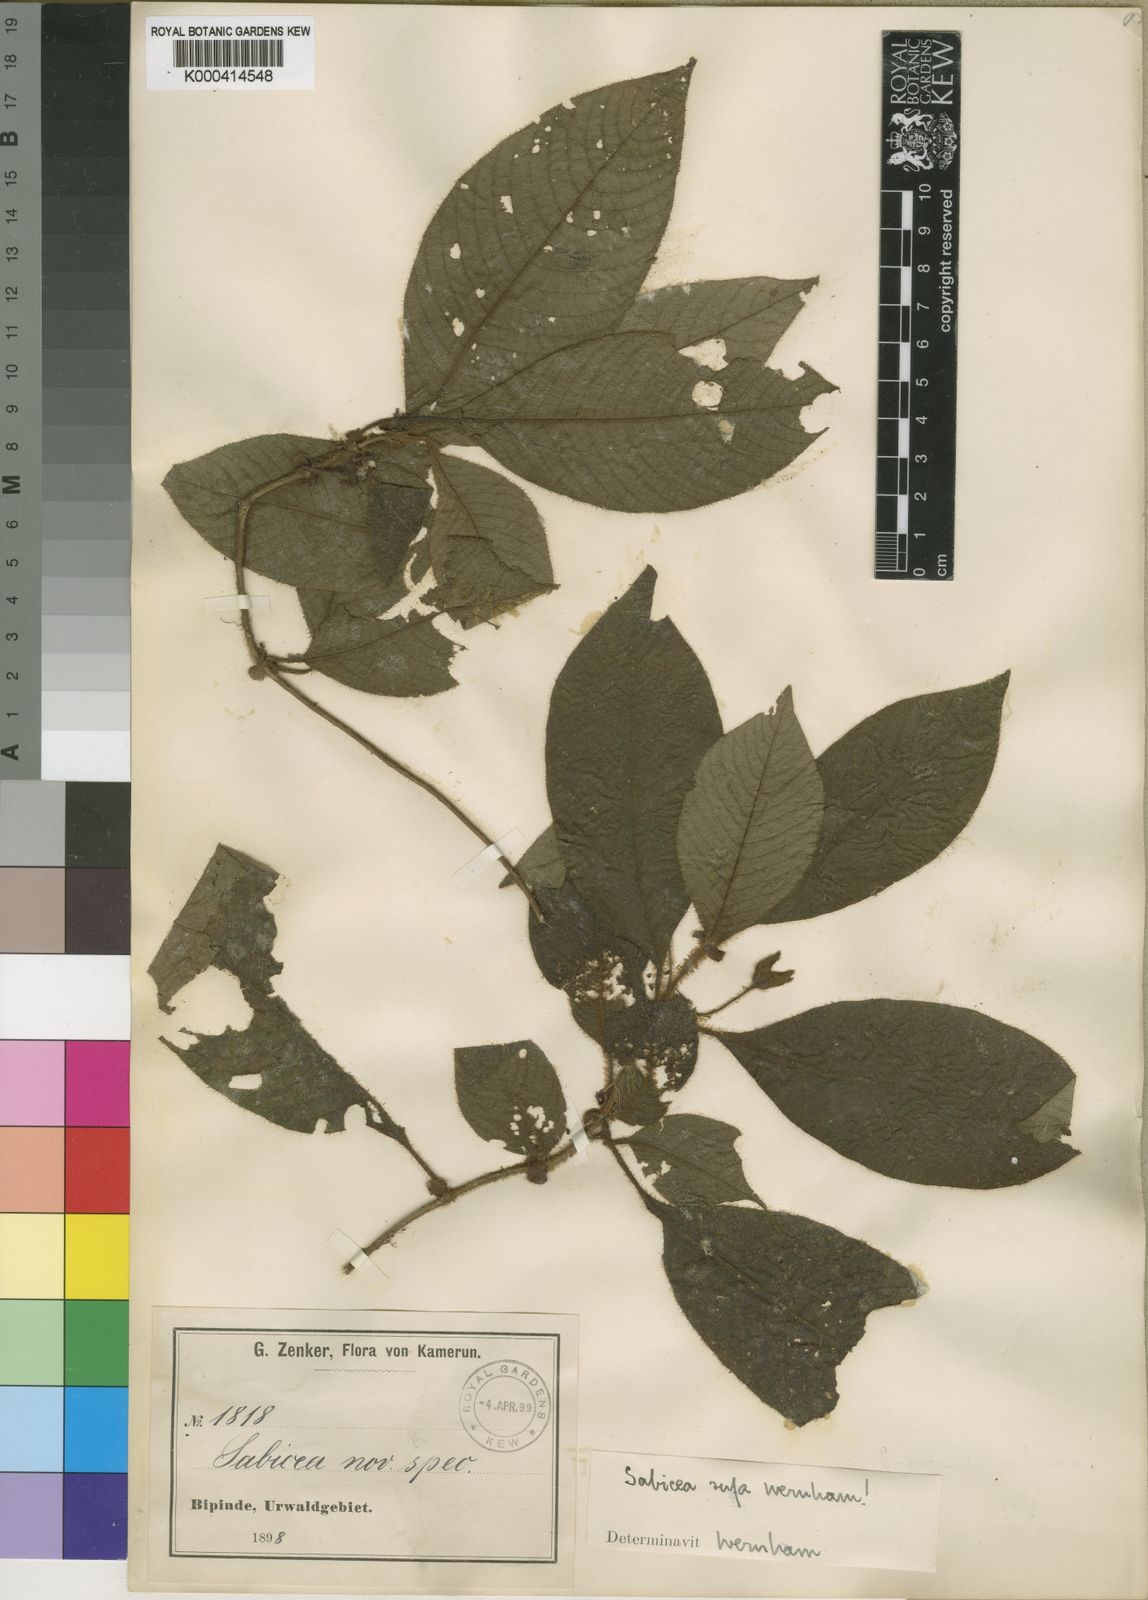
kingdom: Plantae
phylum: Tracheophyta
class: Magnoliopsida
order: Gentianales
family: Rubiaceae
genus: Sabicea
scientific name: Sabicea rufa
